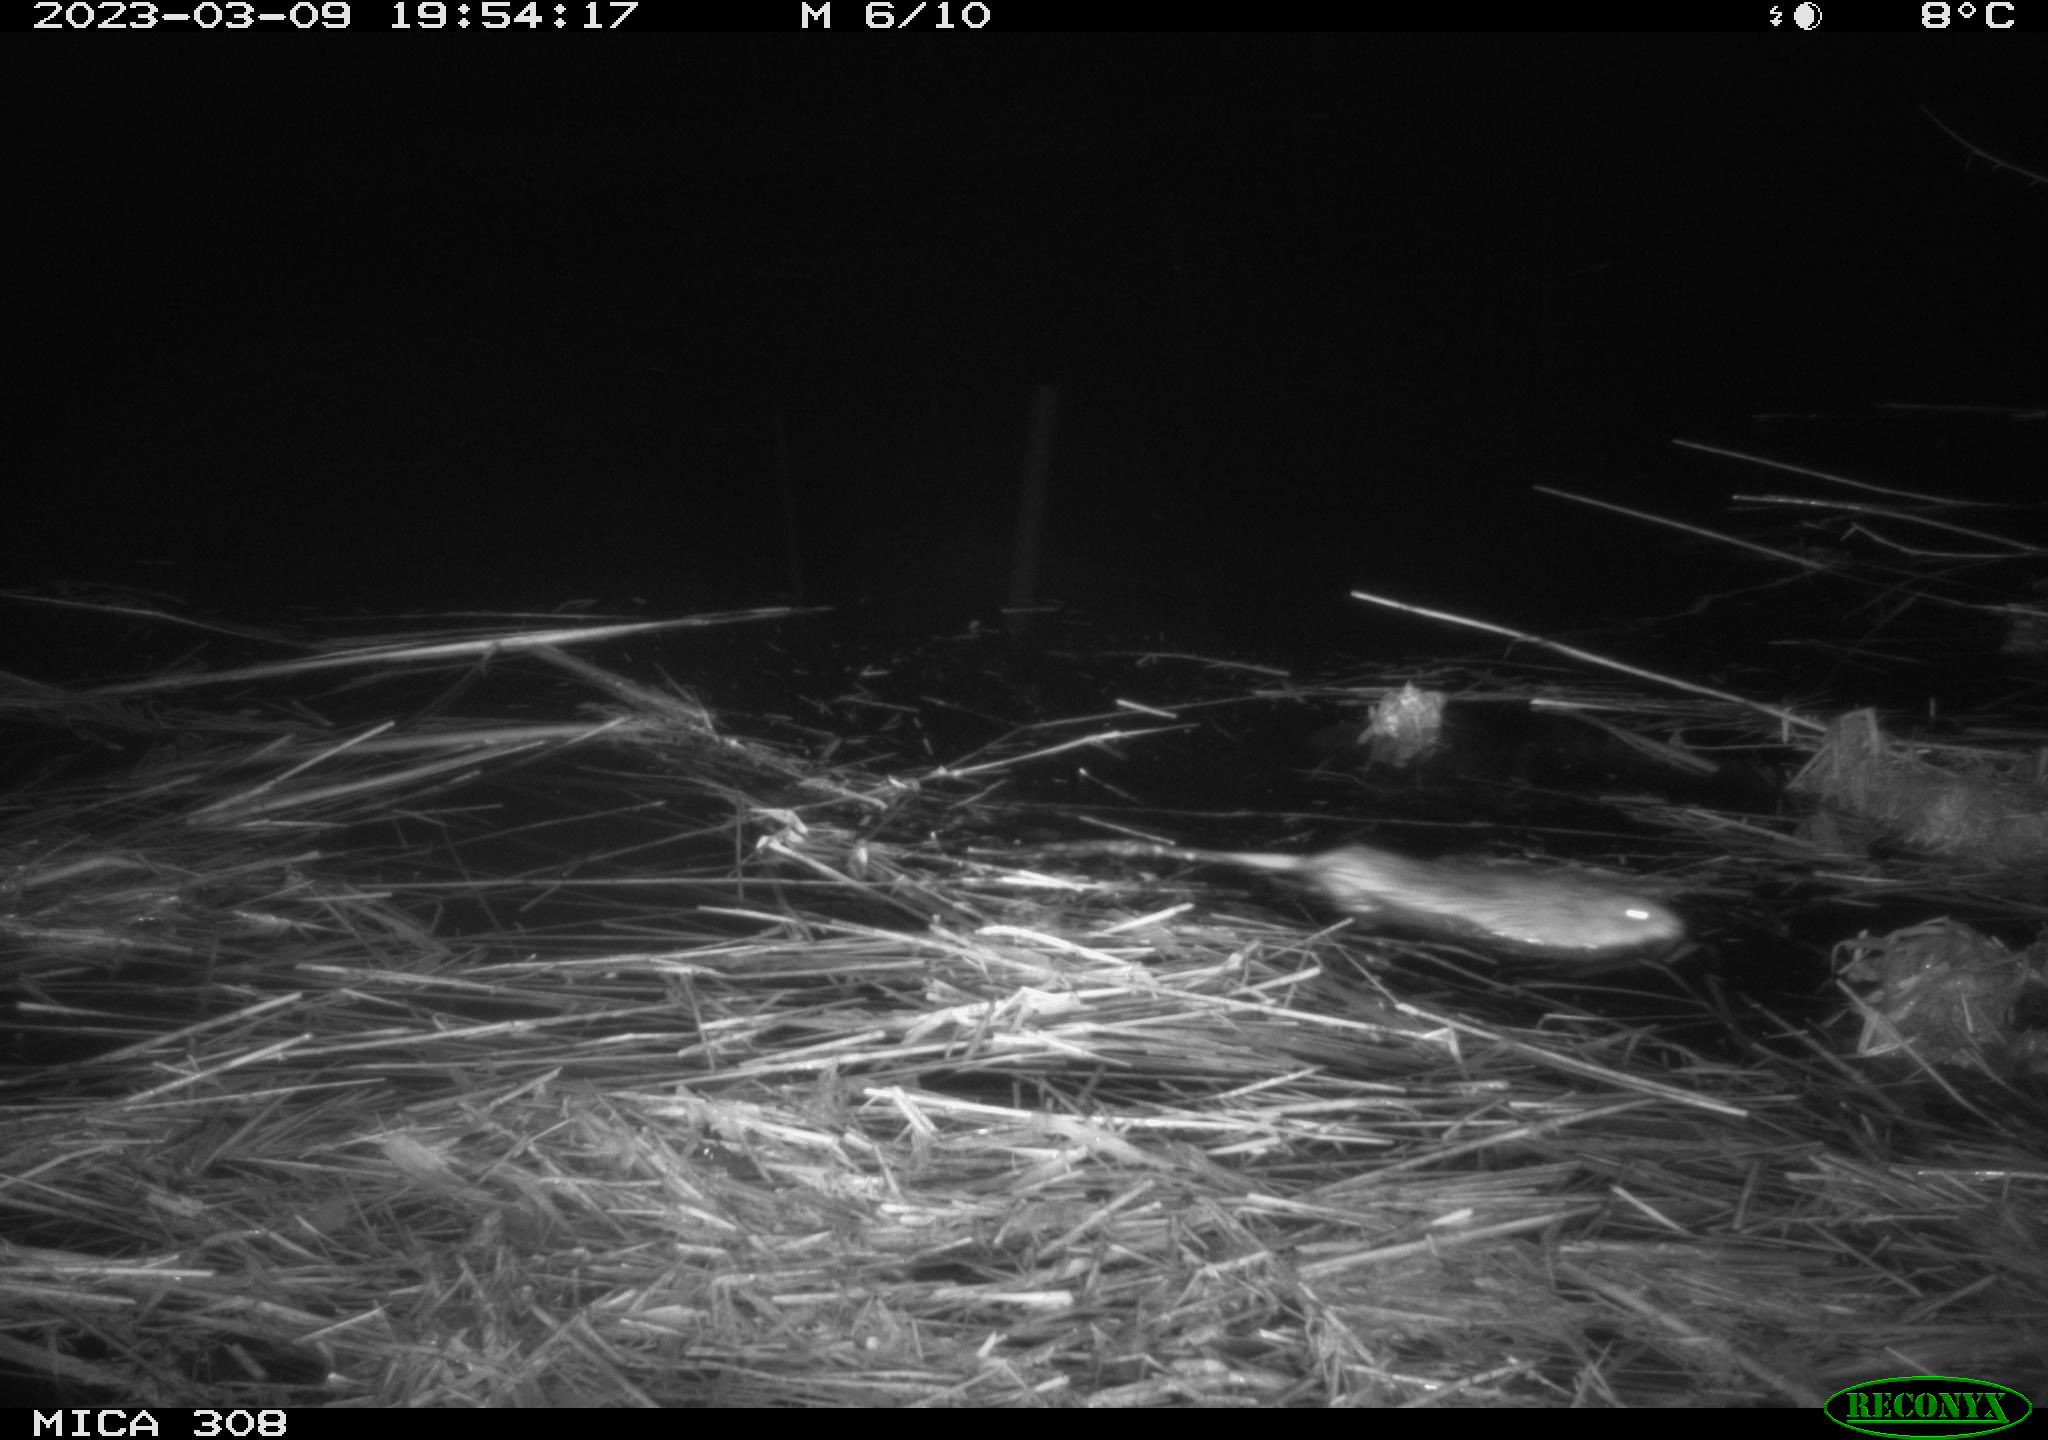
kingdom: Animalia
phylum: Chordata
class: Mammalia
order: Rodentia
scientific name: Rodentia
